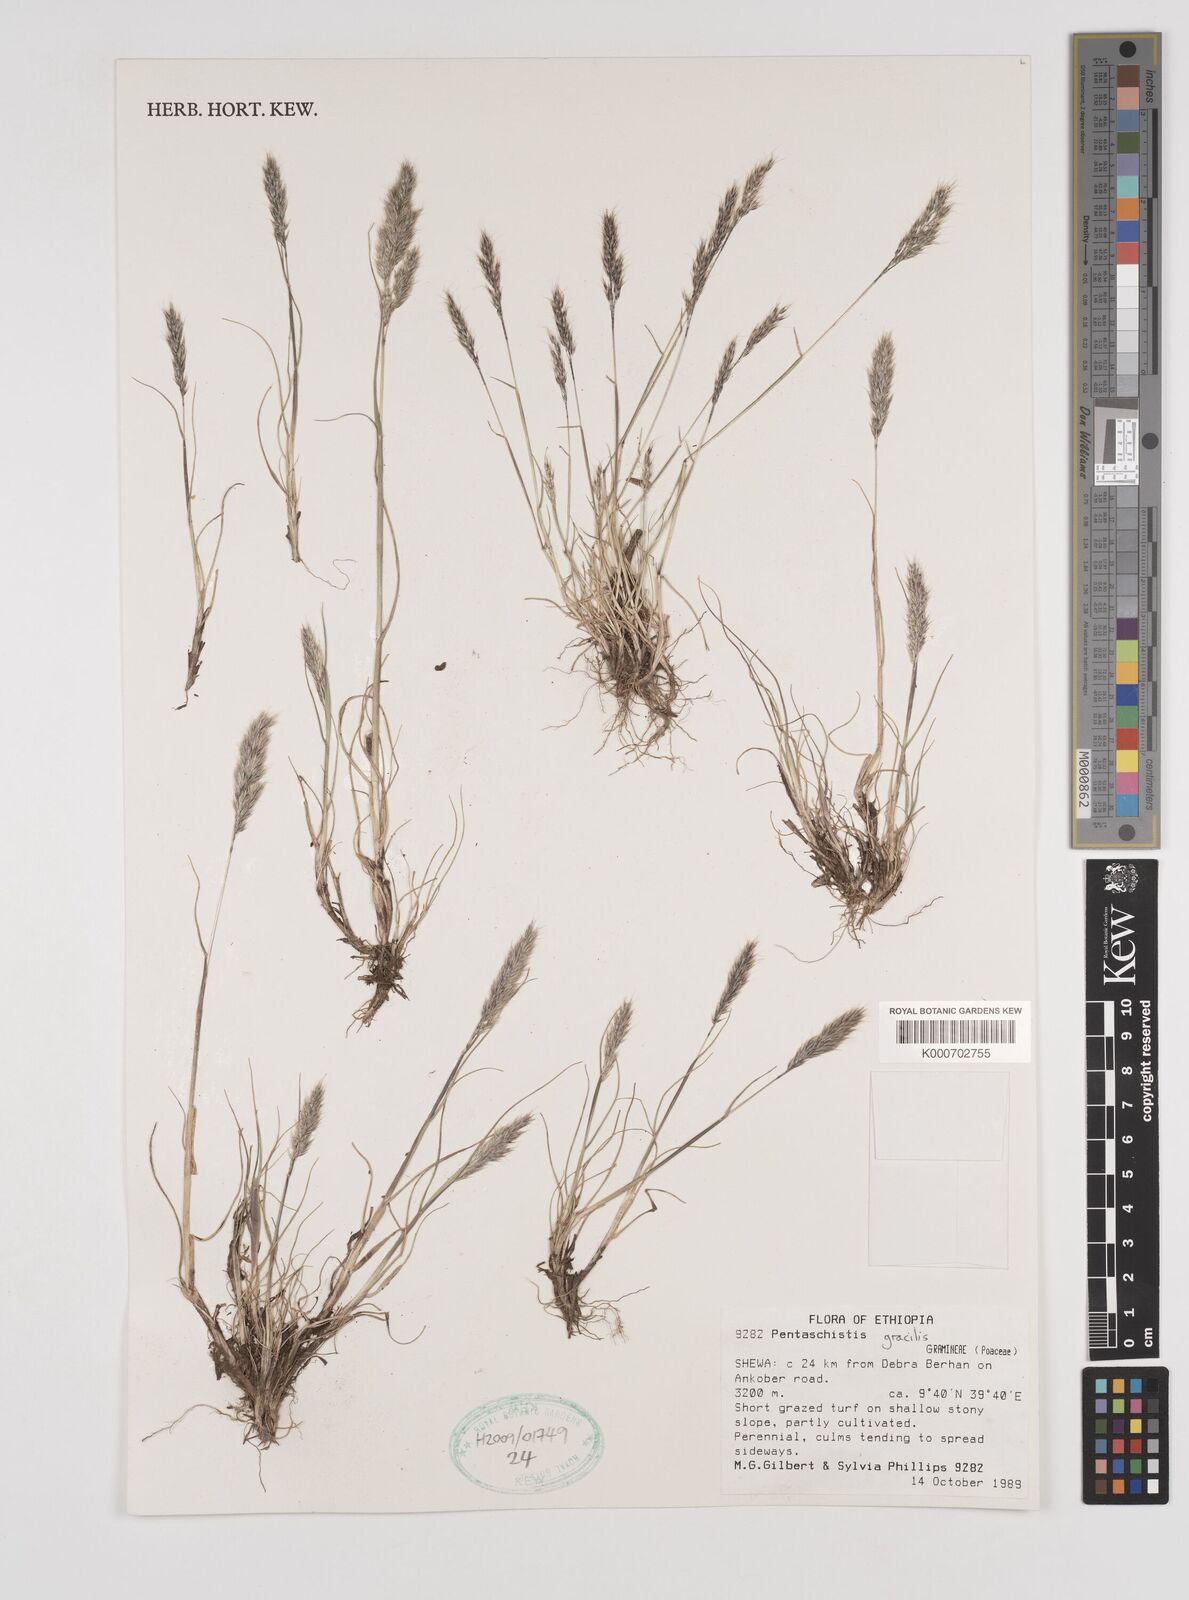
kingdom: Plantae
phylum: Tracheophyta
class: Liliopsida
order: Poales
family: Poaceae
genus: Pentameris
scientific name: Pentameris pictigluma
